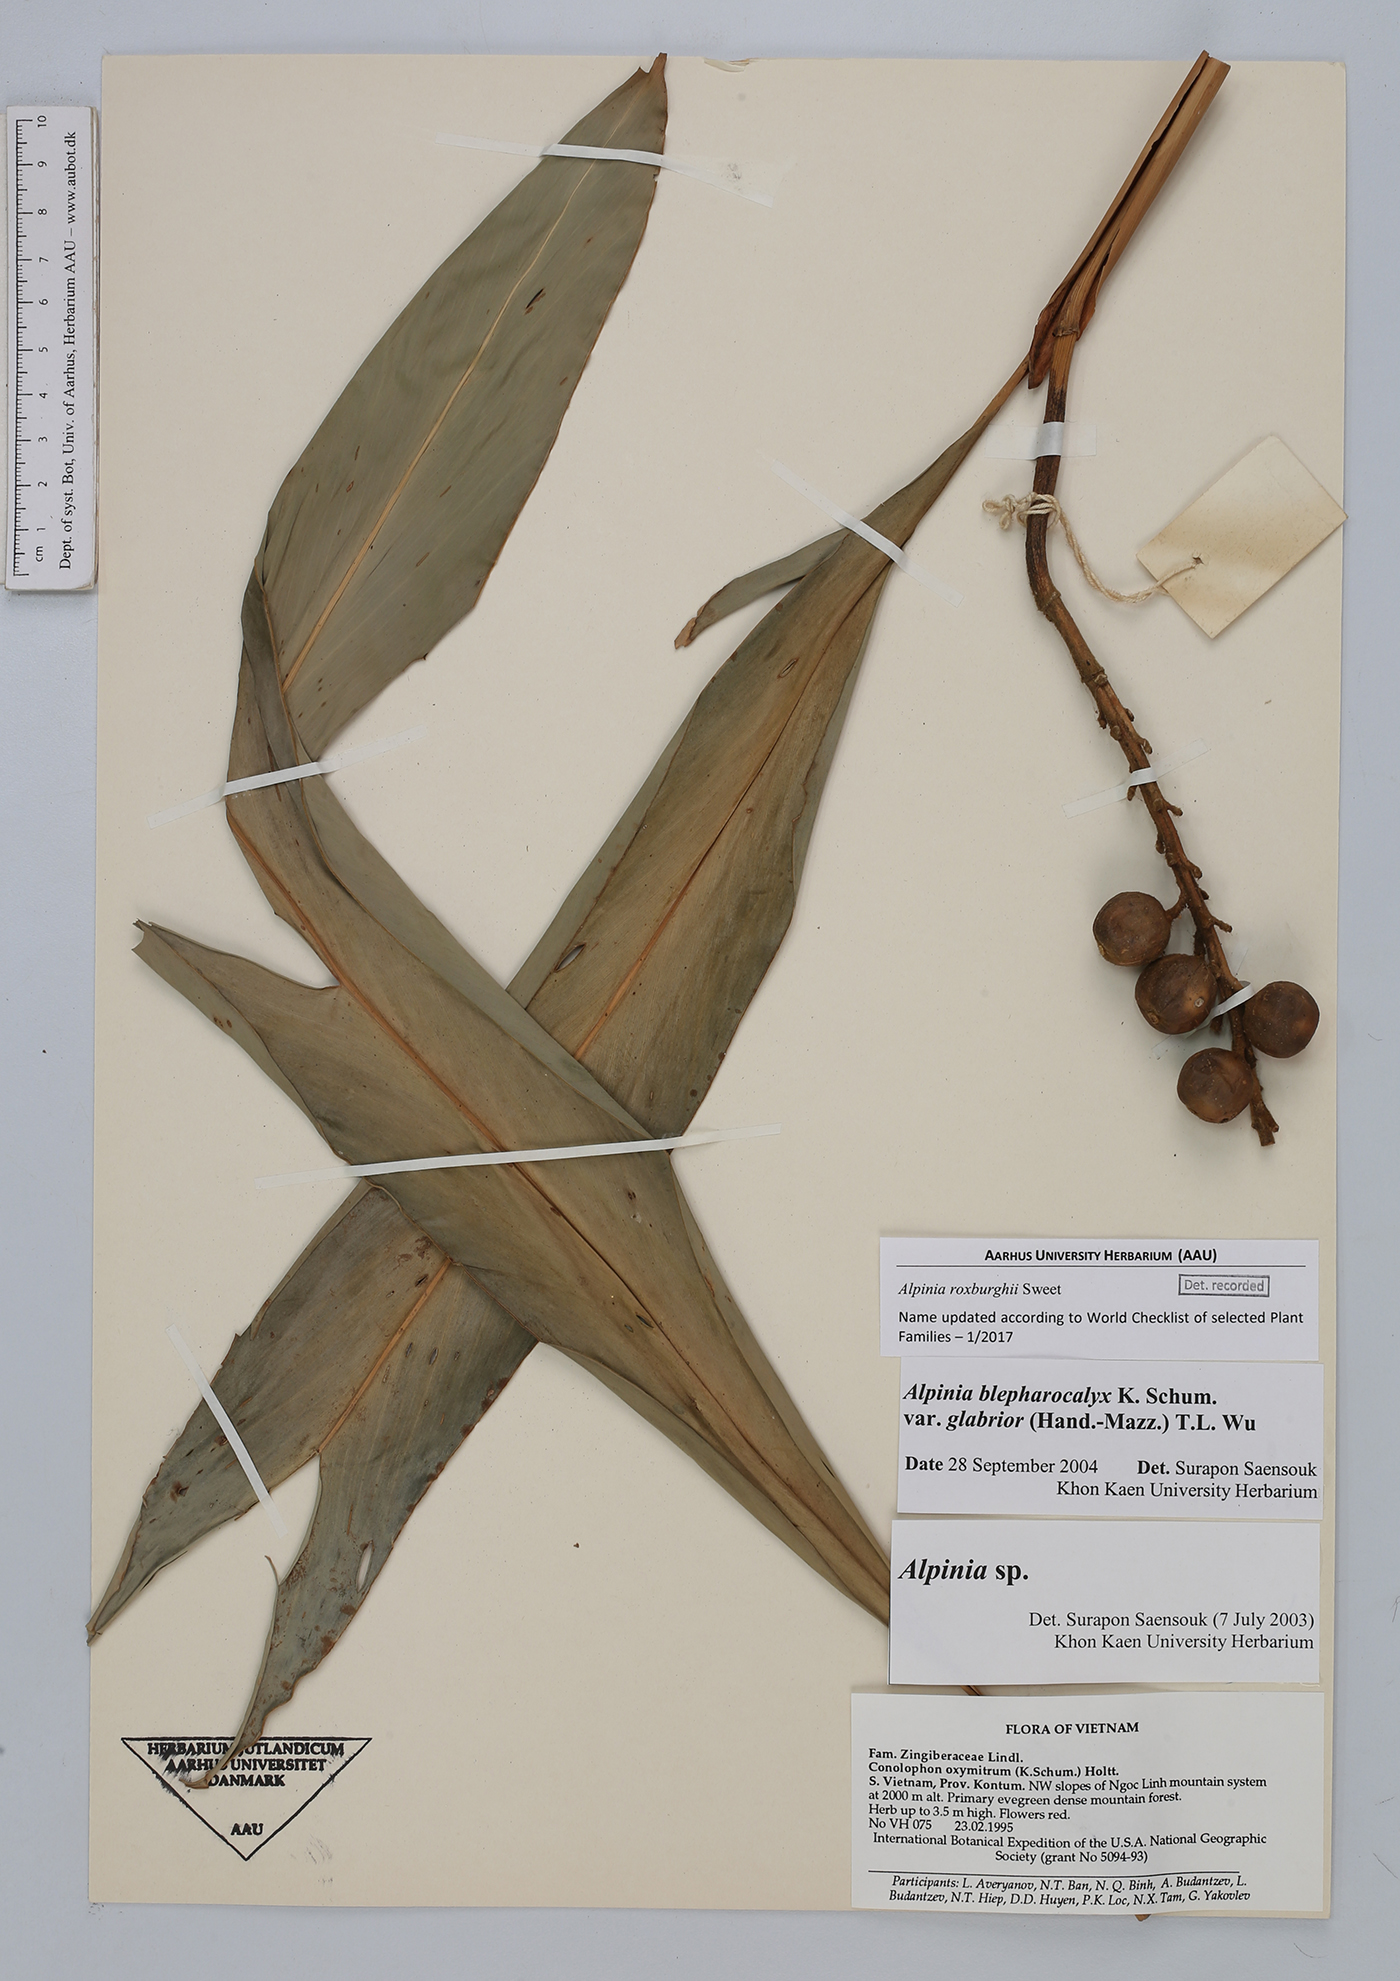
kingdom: Plantae
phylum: Tracheophyta
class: Liliopsida
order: Zingiberales
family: Zingiberaceae
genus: Alpinia
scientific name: Alpinia roxburghii
